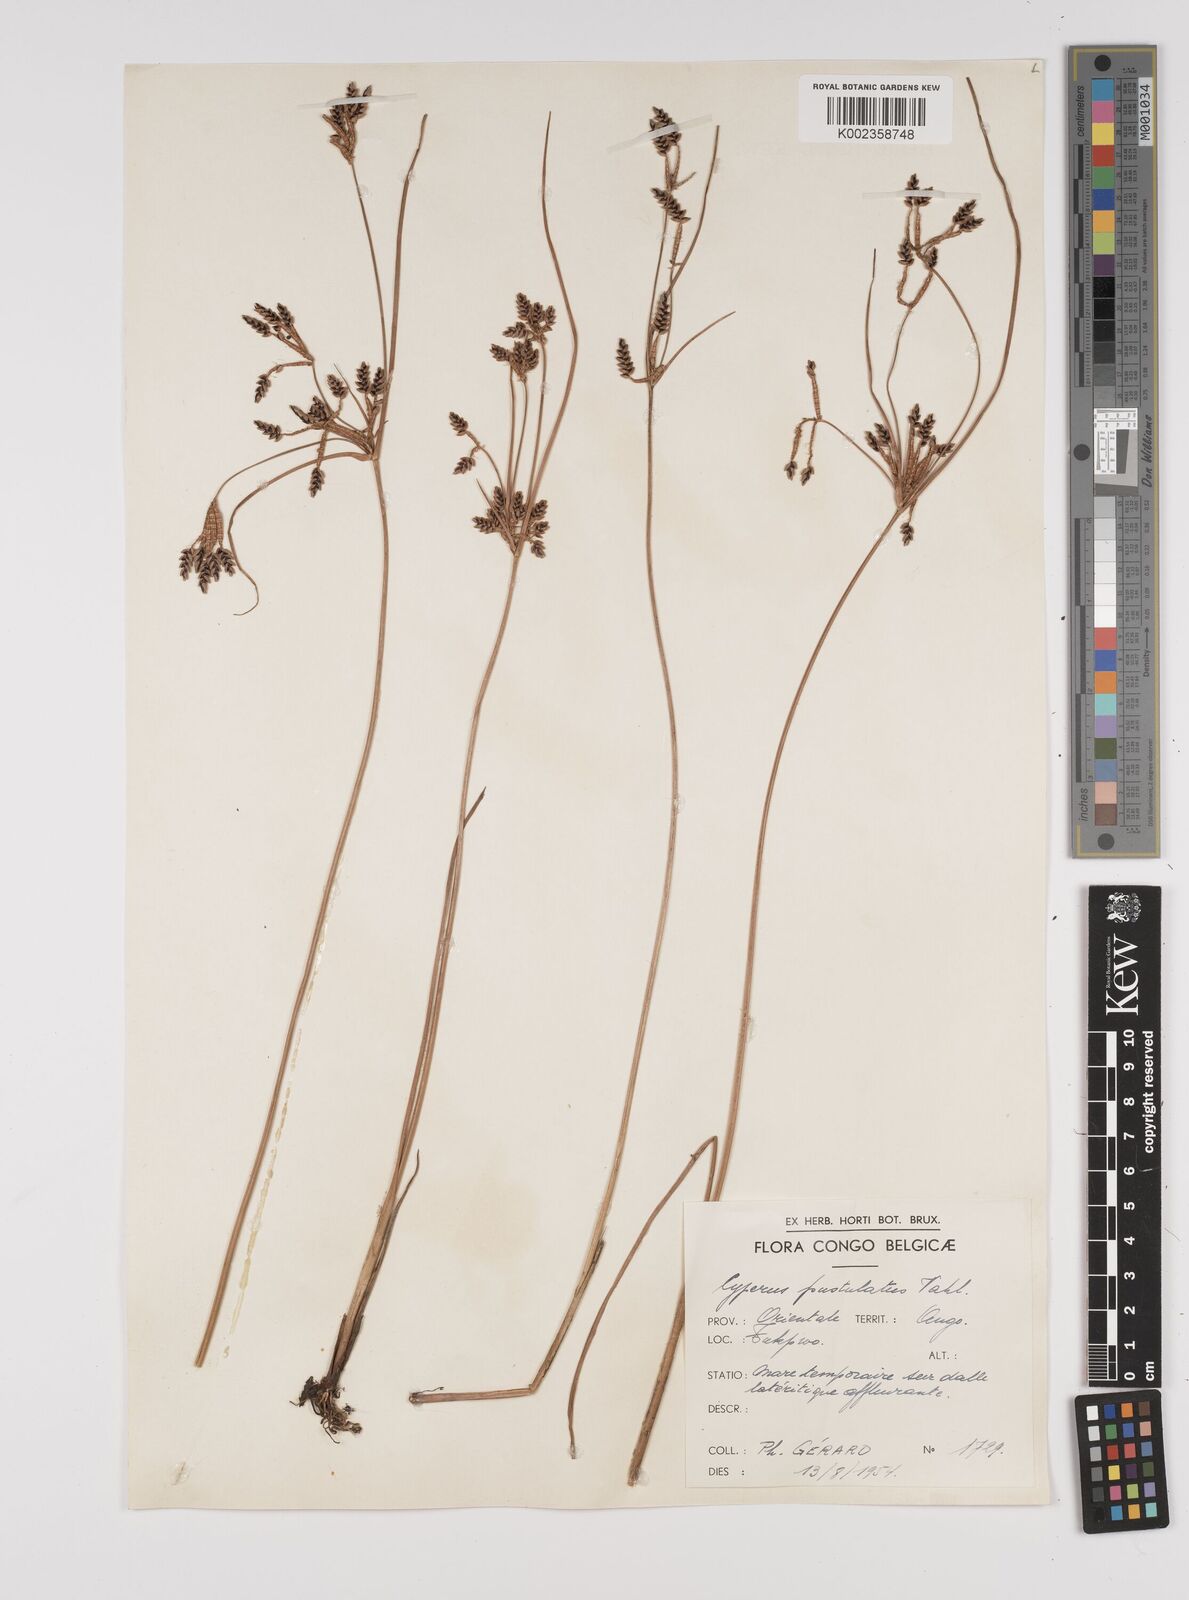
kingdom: Plantae
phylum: Tracheophyta
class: Liliopsida
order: Poales
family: Cyperaceae
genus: Cyperus
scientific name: Cyperus pustulatus
